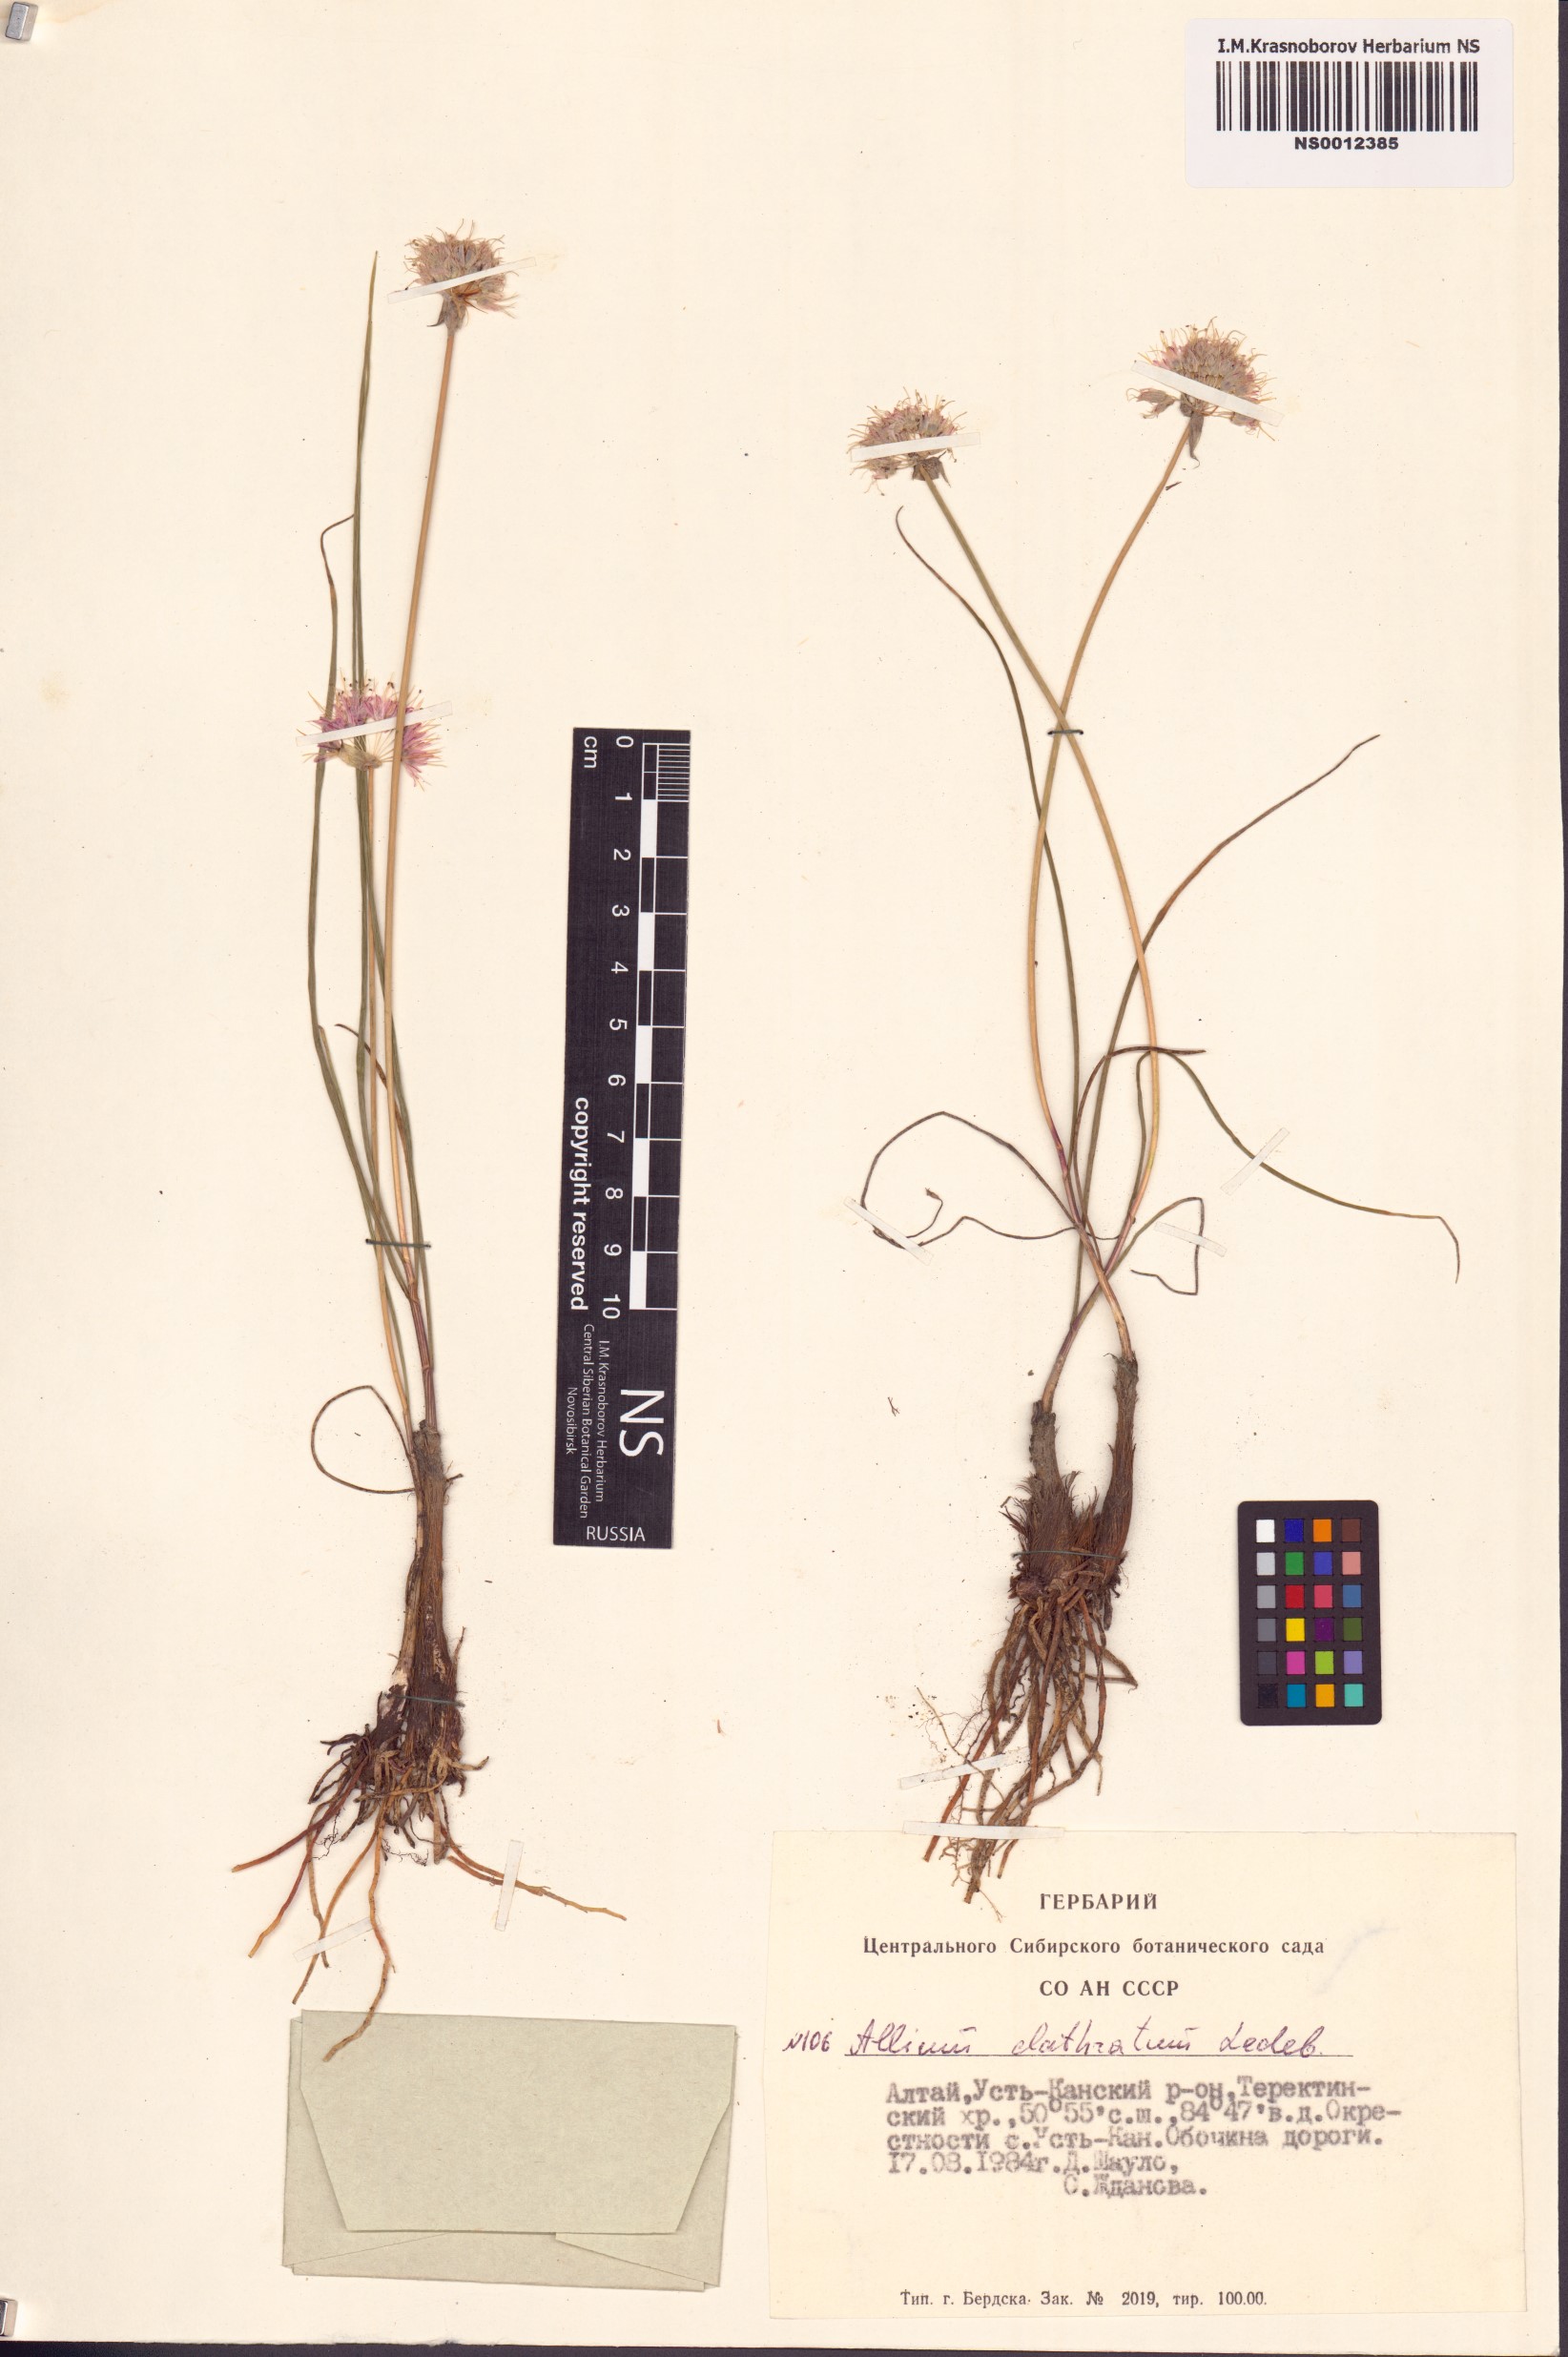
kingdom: Plantae
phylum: Tracheophyta
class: Liliopsida
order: Asparagales
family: Amaryllidaceae
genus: Allium
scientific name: Allium clathratum
